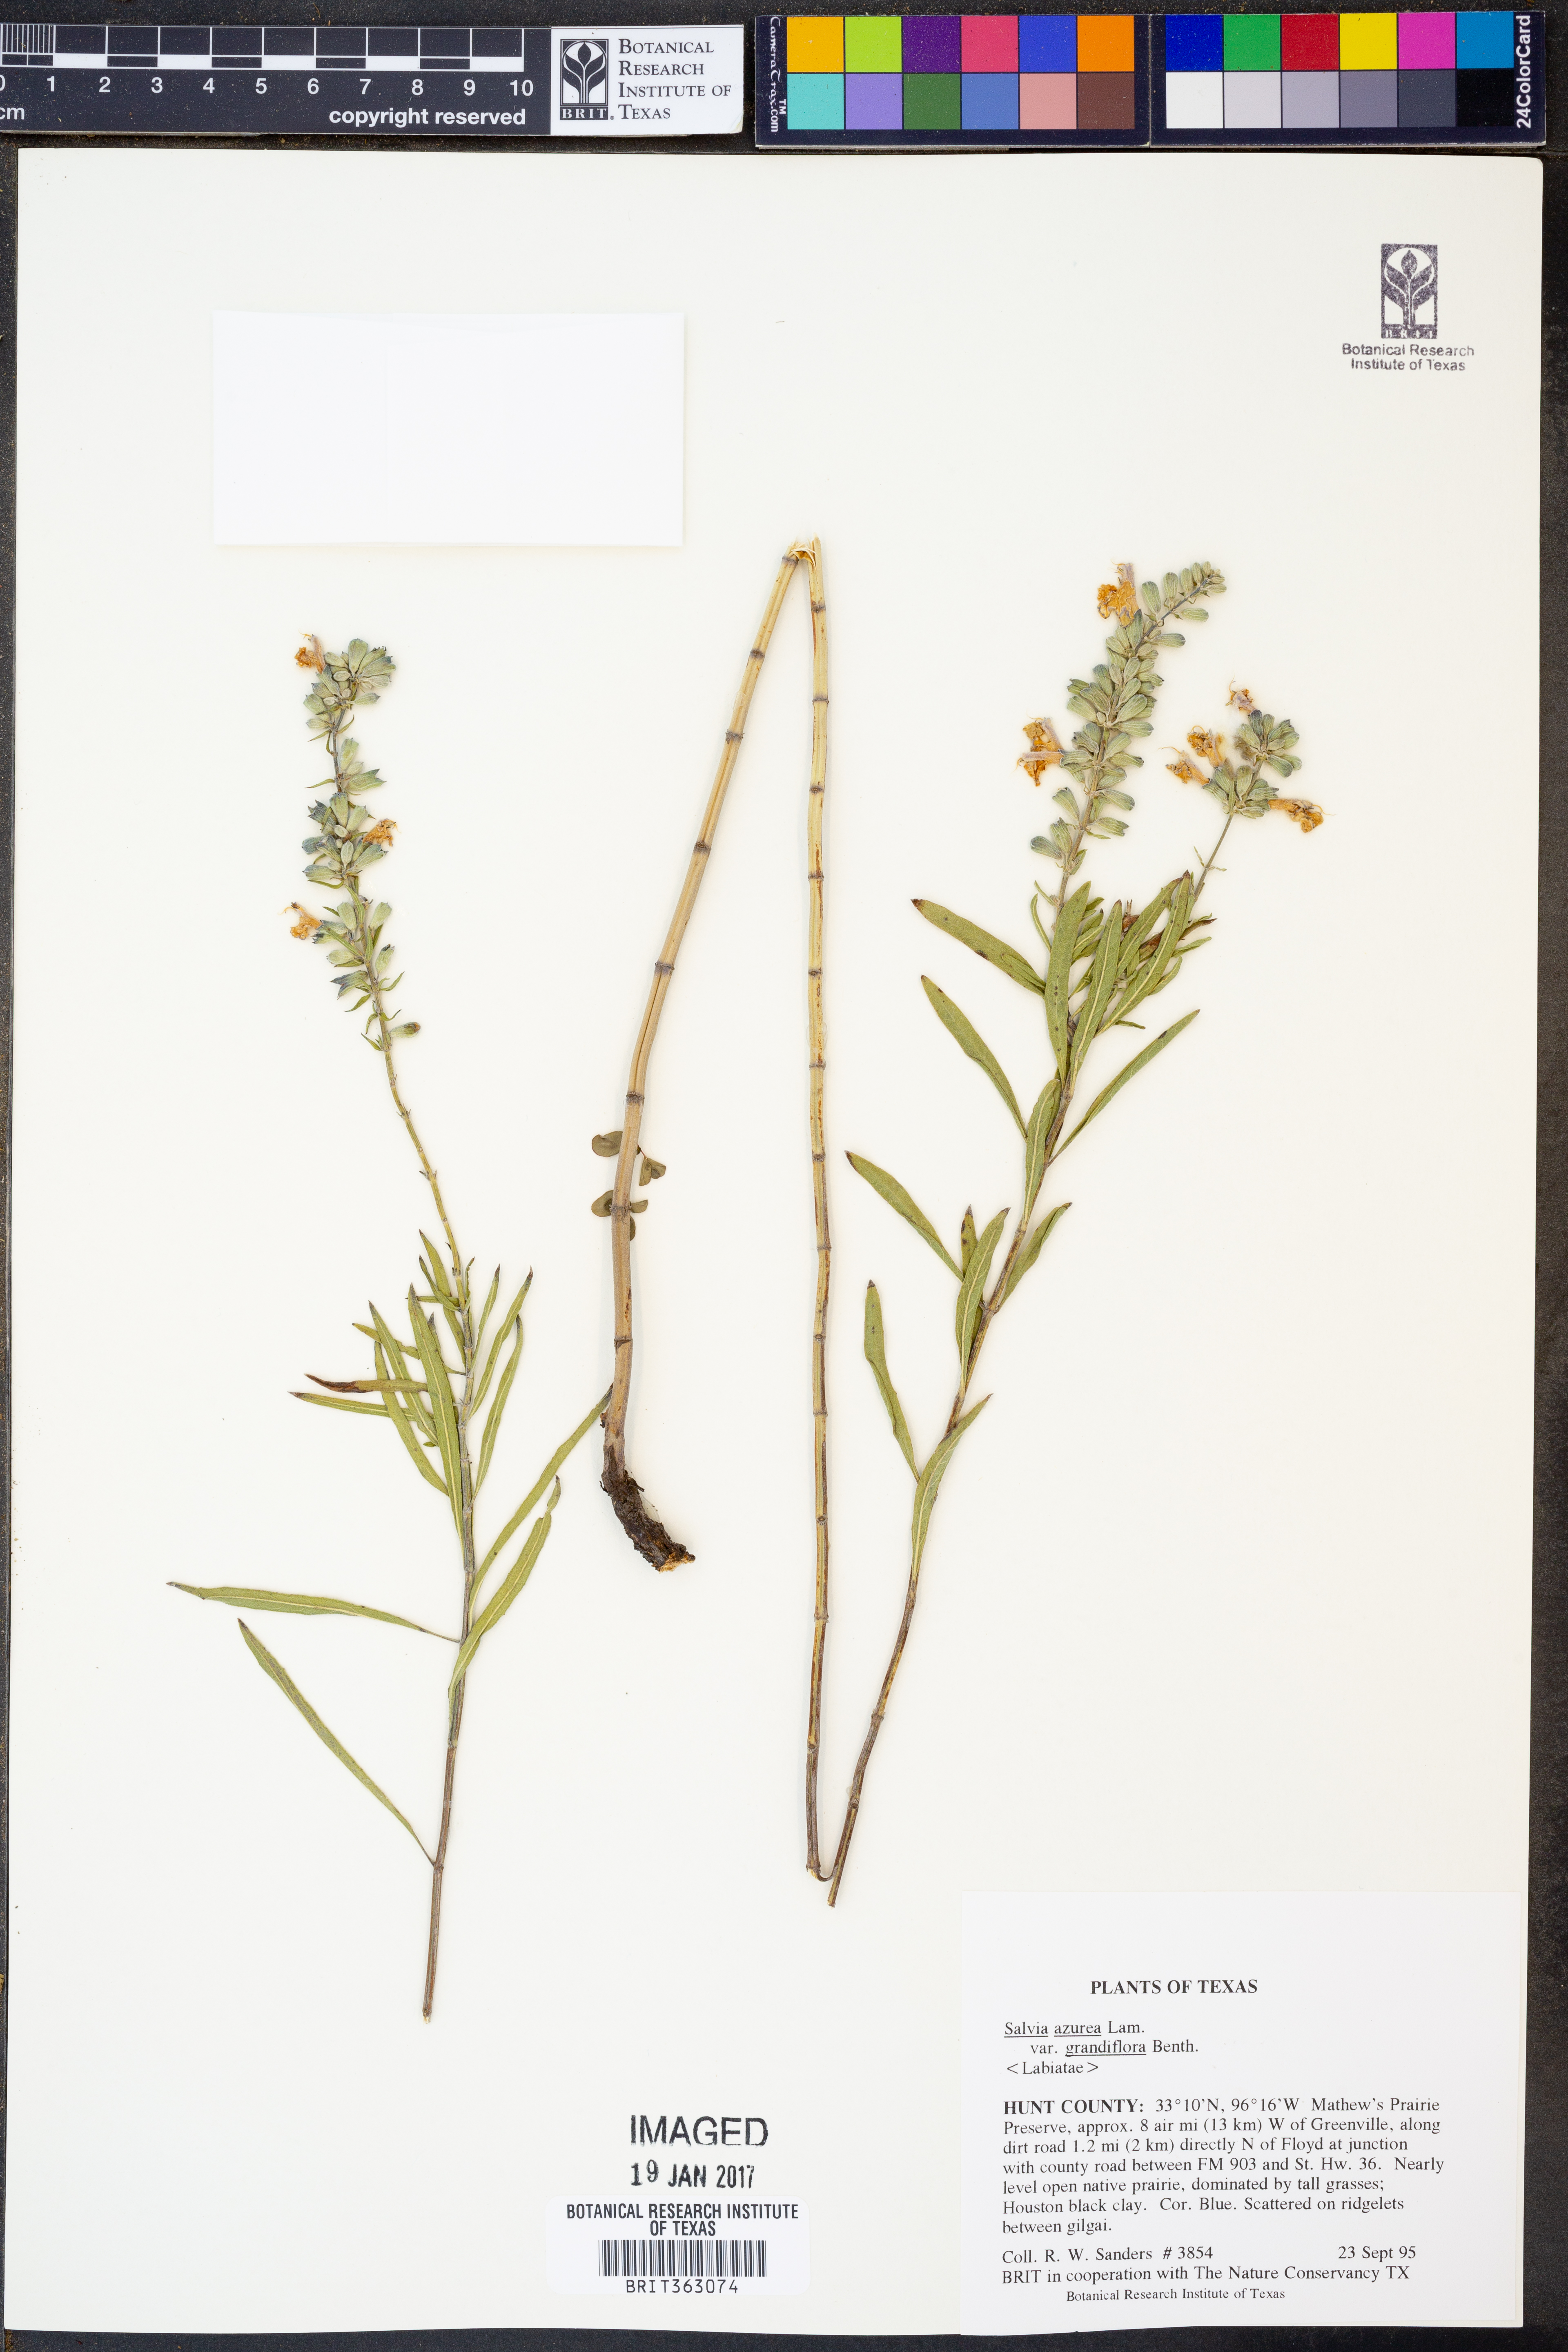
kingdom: Plantae
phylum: Tracheophyta
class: Magnoliopsida
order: Lamiales
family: Lamiaceae
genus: Salvia
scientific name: Salvia azurea
